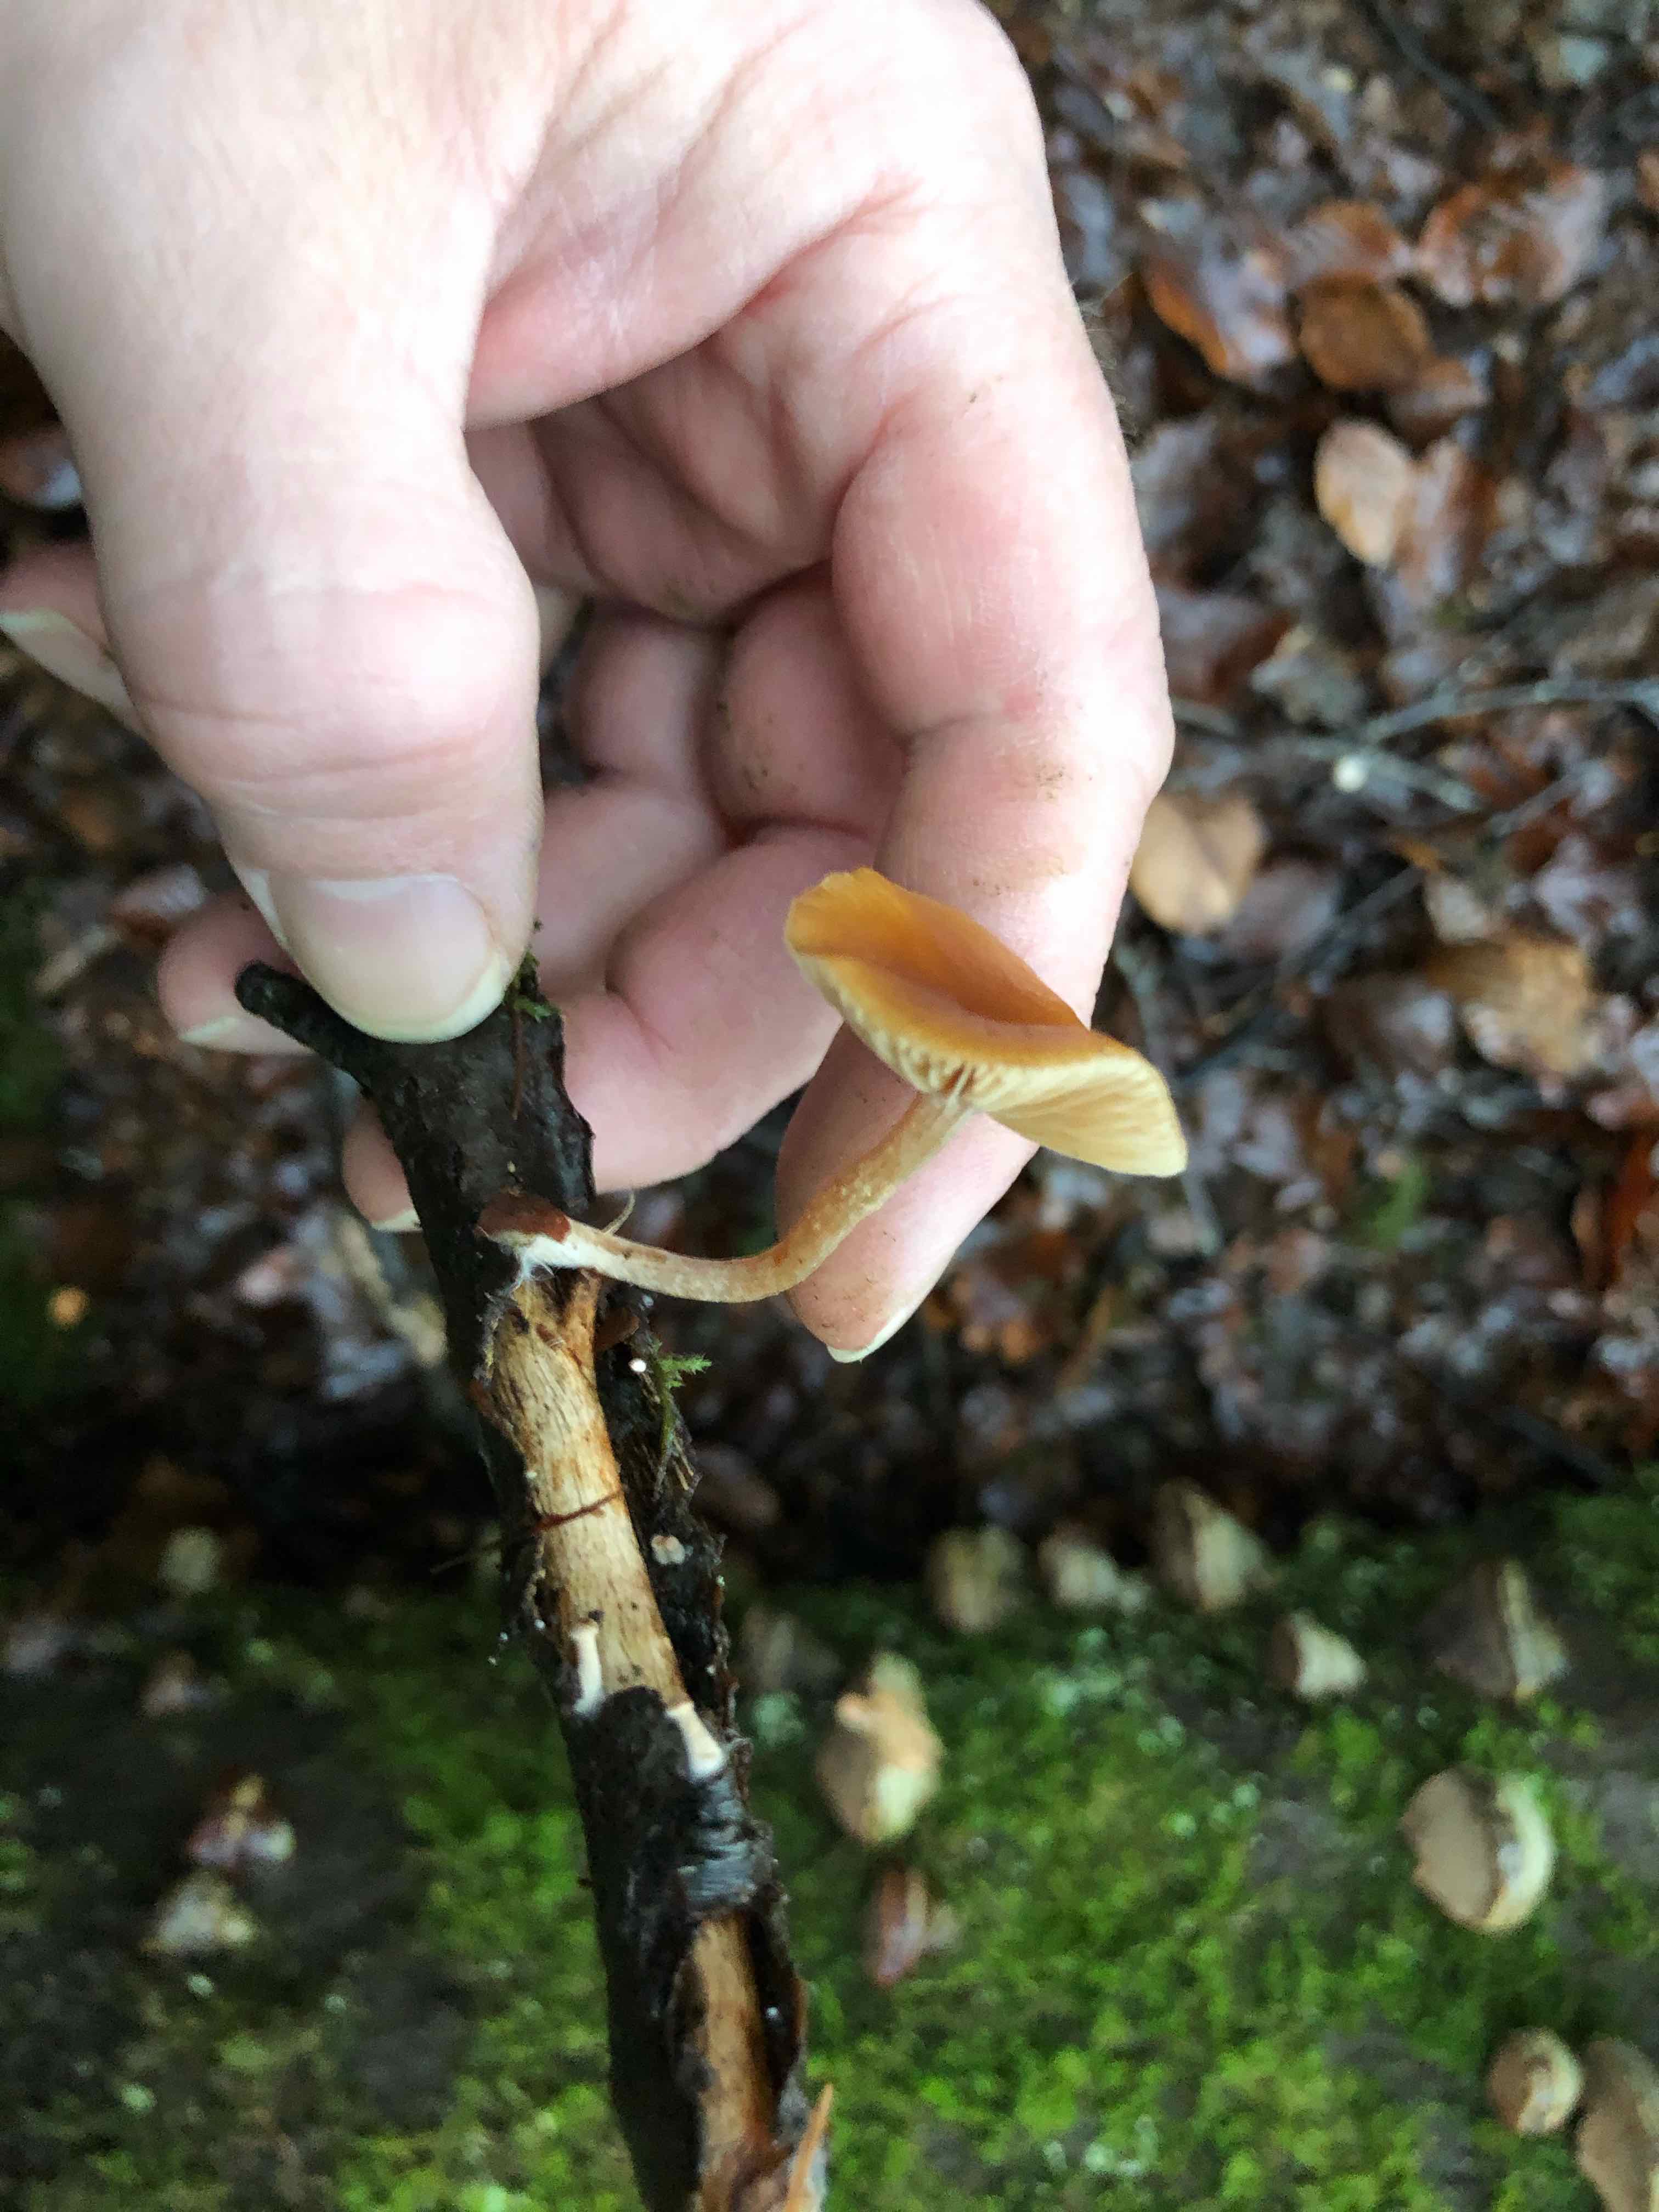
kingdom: Fungi
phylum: Basidiomycota
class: Agaricomycetes
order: Agaricales
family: Hymenogastraceae
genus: Galerina
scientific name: Galerina
